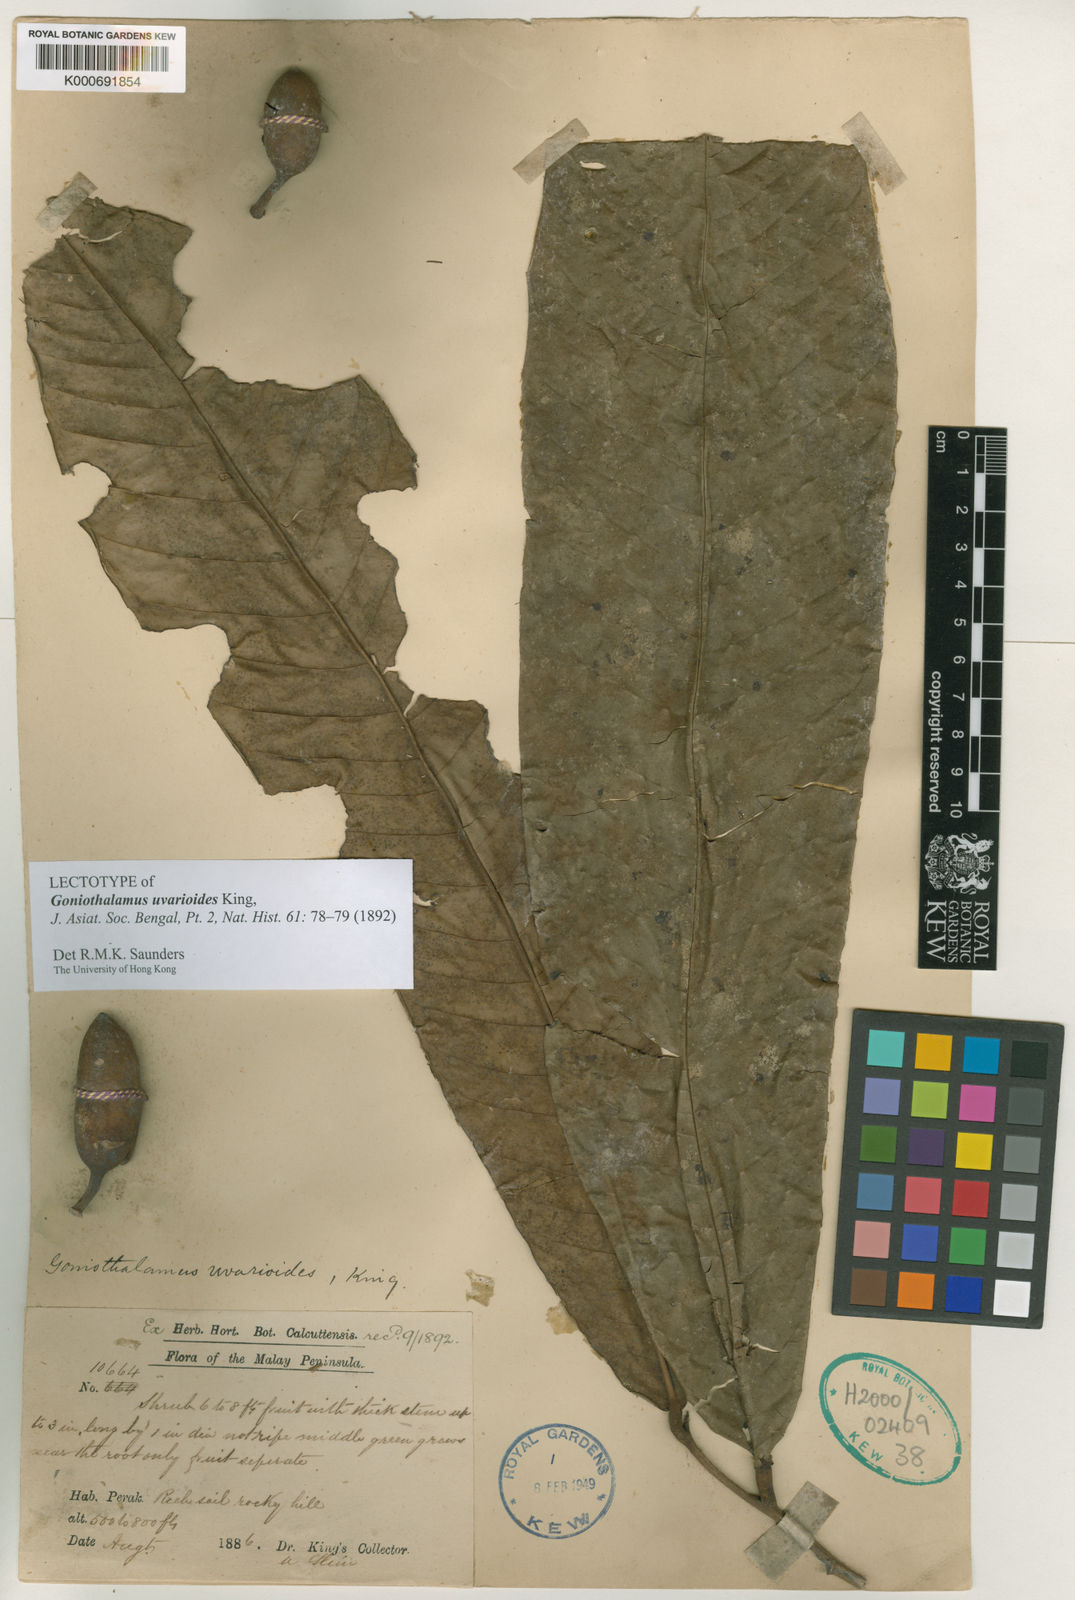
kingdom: Plantae
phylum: Tracheophyta
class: Magnoliopsida
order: Magnoliales
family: Annonaceae
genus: Goniothalamus
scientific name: Goniothalamus uvarioides
